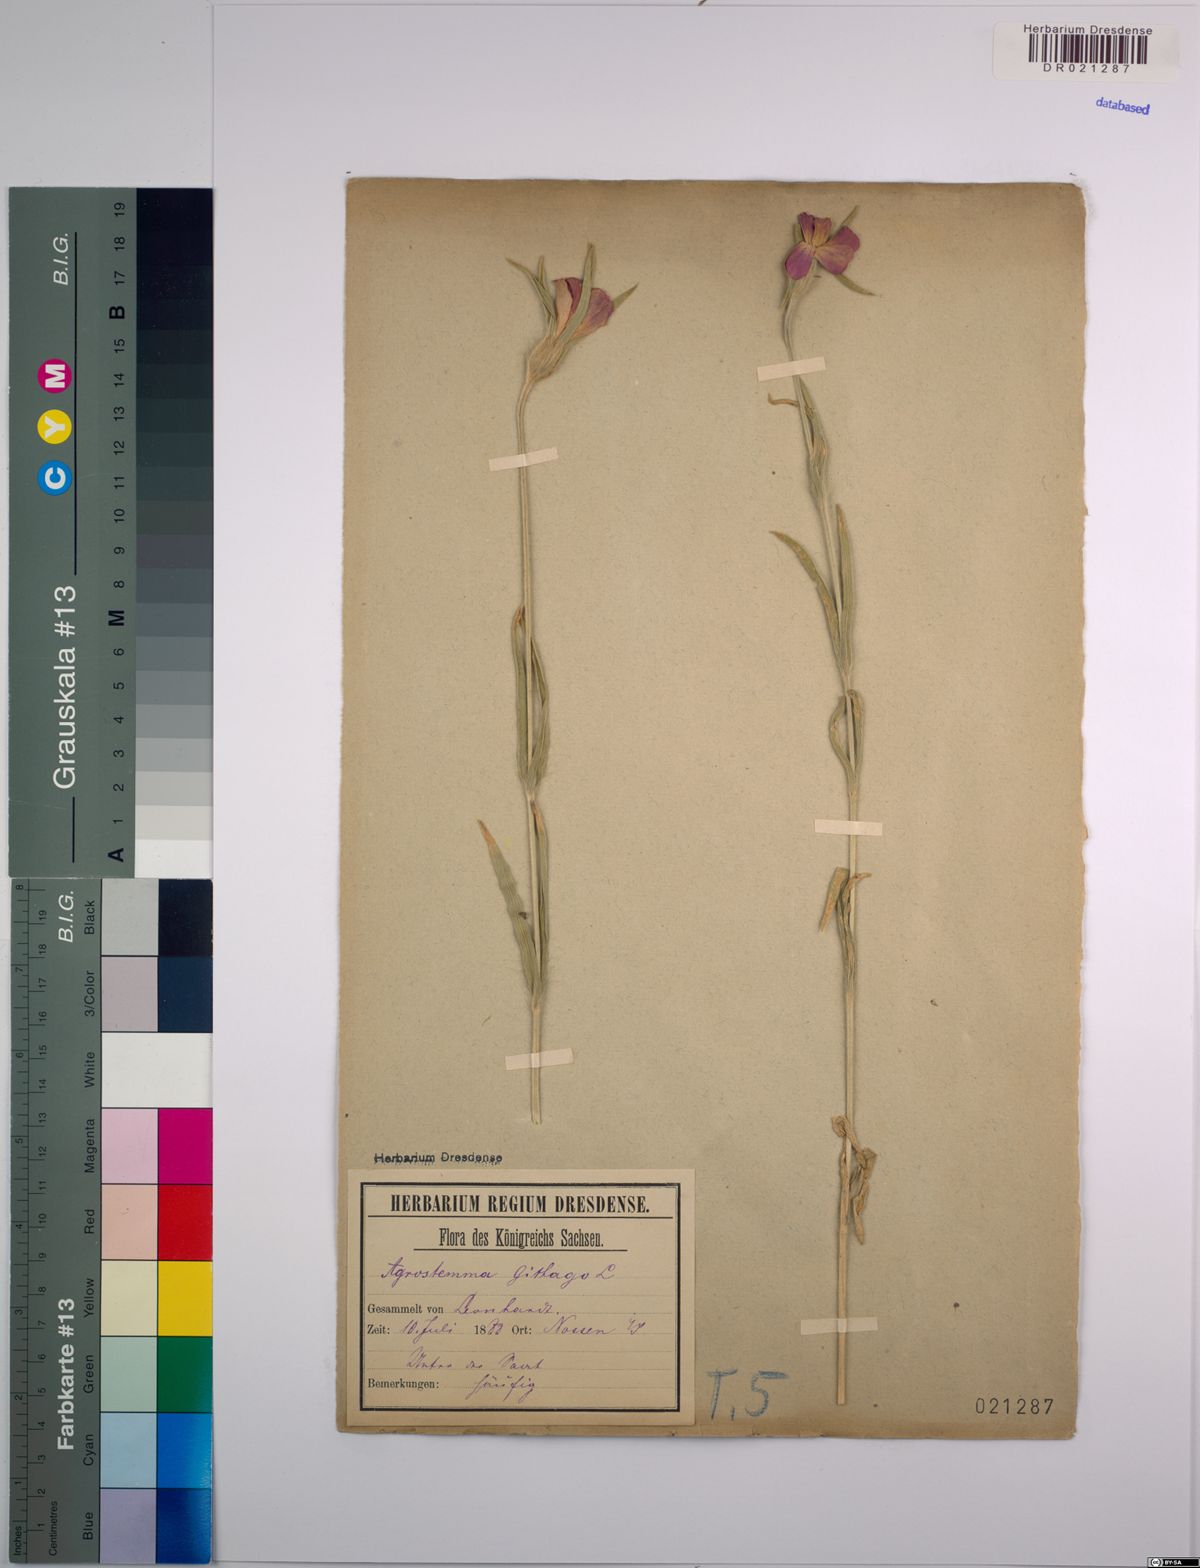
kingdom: Plantae
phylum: Tracheophyta
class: Magnoliopsida
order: Caryophyllales
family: Caryophyllaceae
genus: Agrostemma
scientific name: Agrostemma githago
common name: Common corncockle
